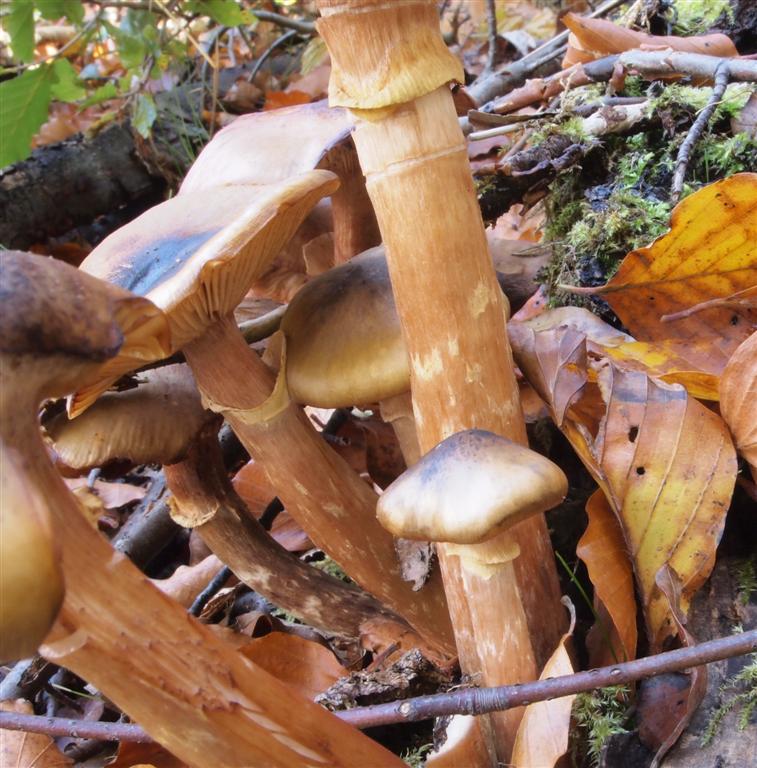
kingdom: Fungi
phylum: Basidiomycota
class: Agaricomycetes
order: Agaricales
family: Physalacriaceae
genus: Armillaria
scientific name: Armillaria mellea
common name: ægte honningsvamp
